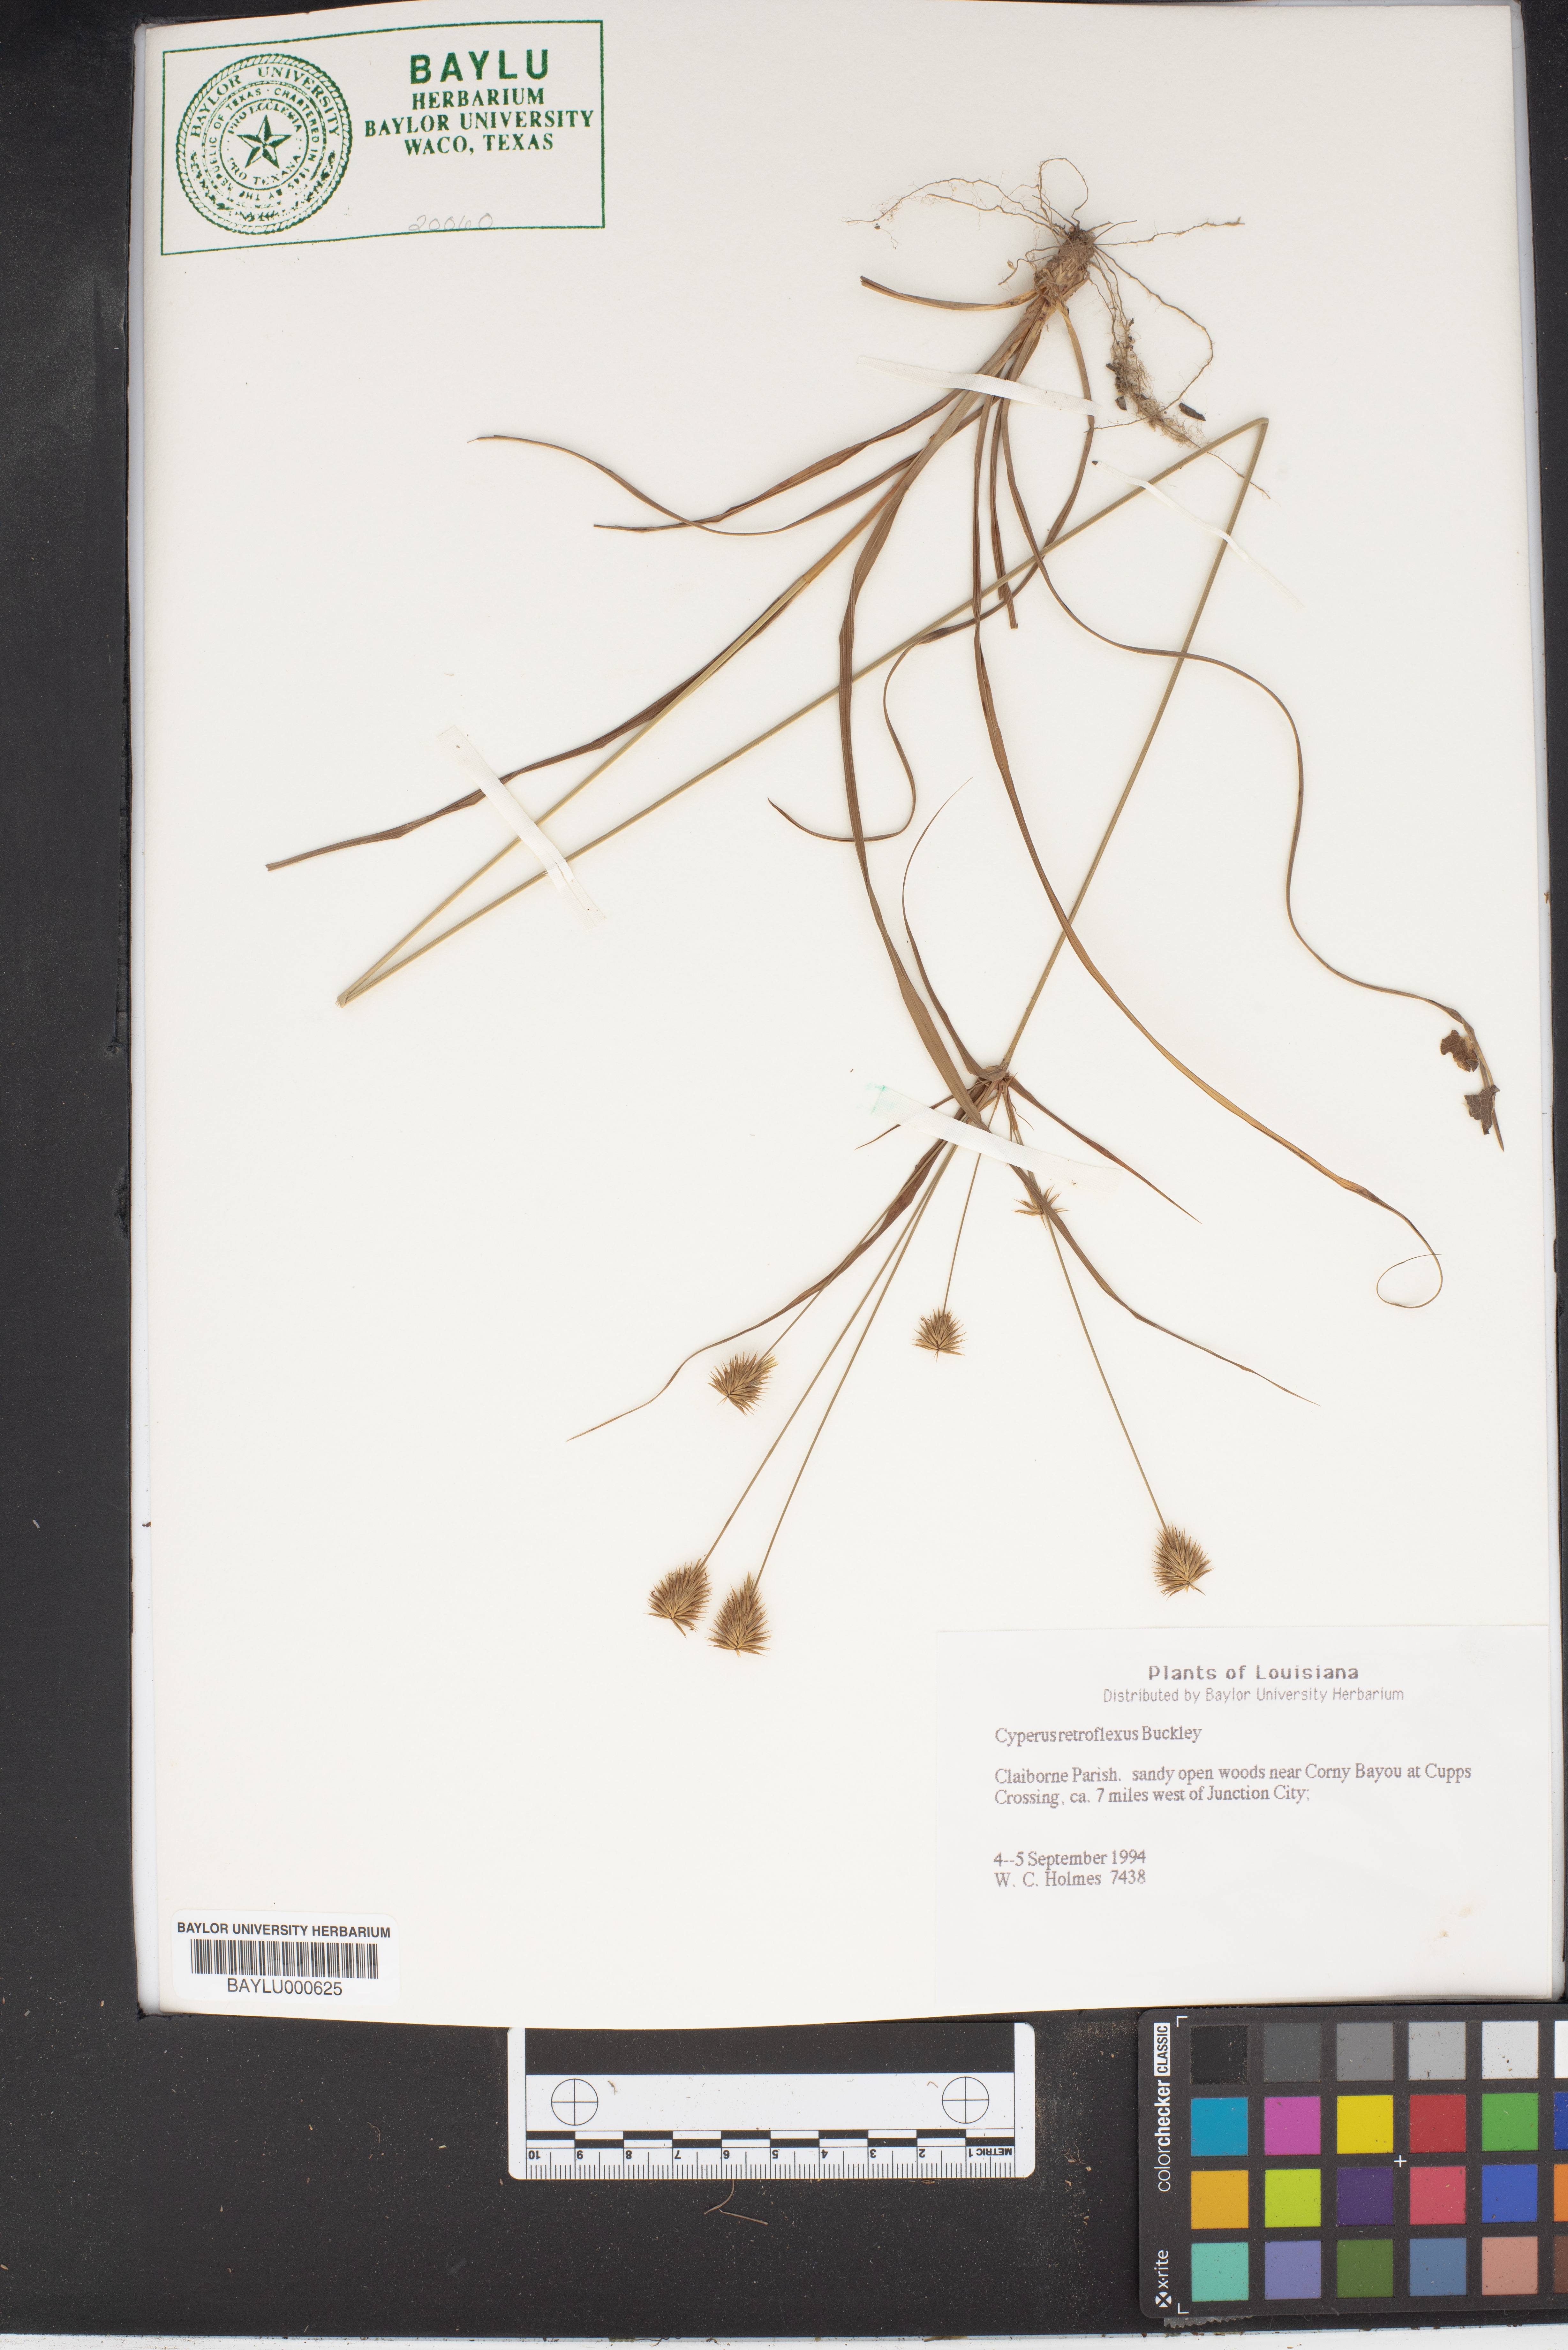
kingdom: Plantae
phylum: Tracheophyta
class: Liliopsida
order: Poales
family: Cyperaceae
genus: Cyperus
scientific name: Cyperus retroflexus
